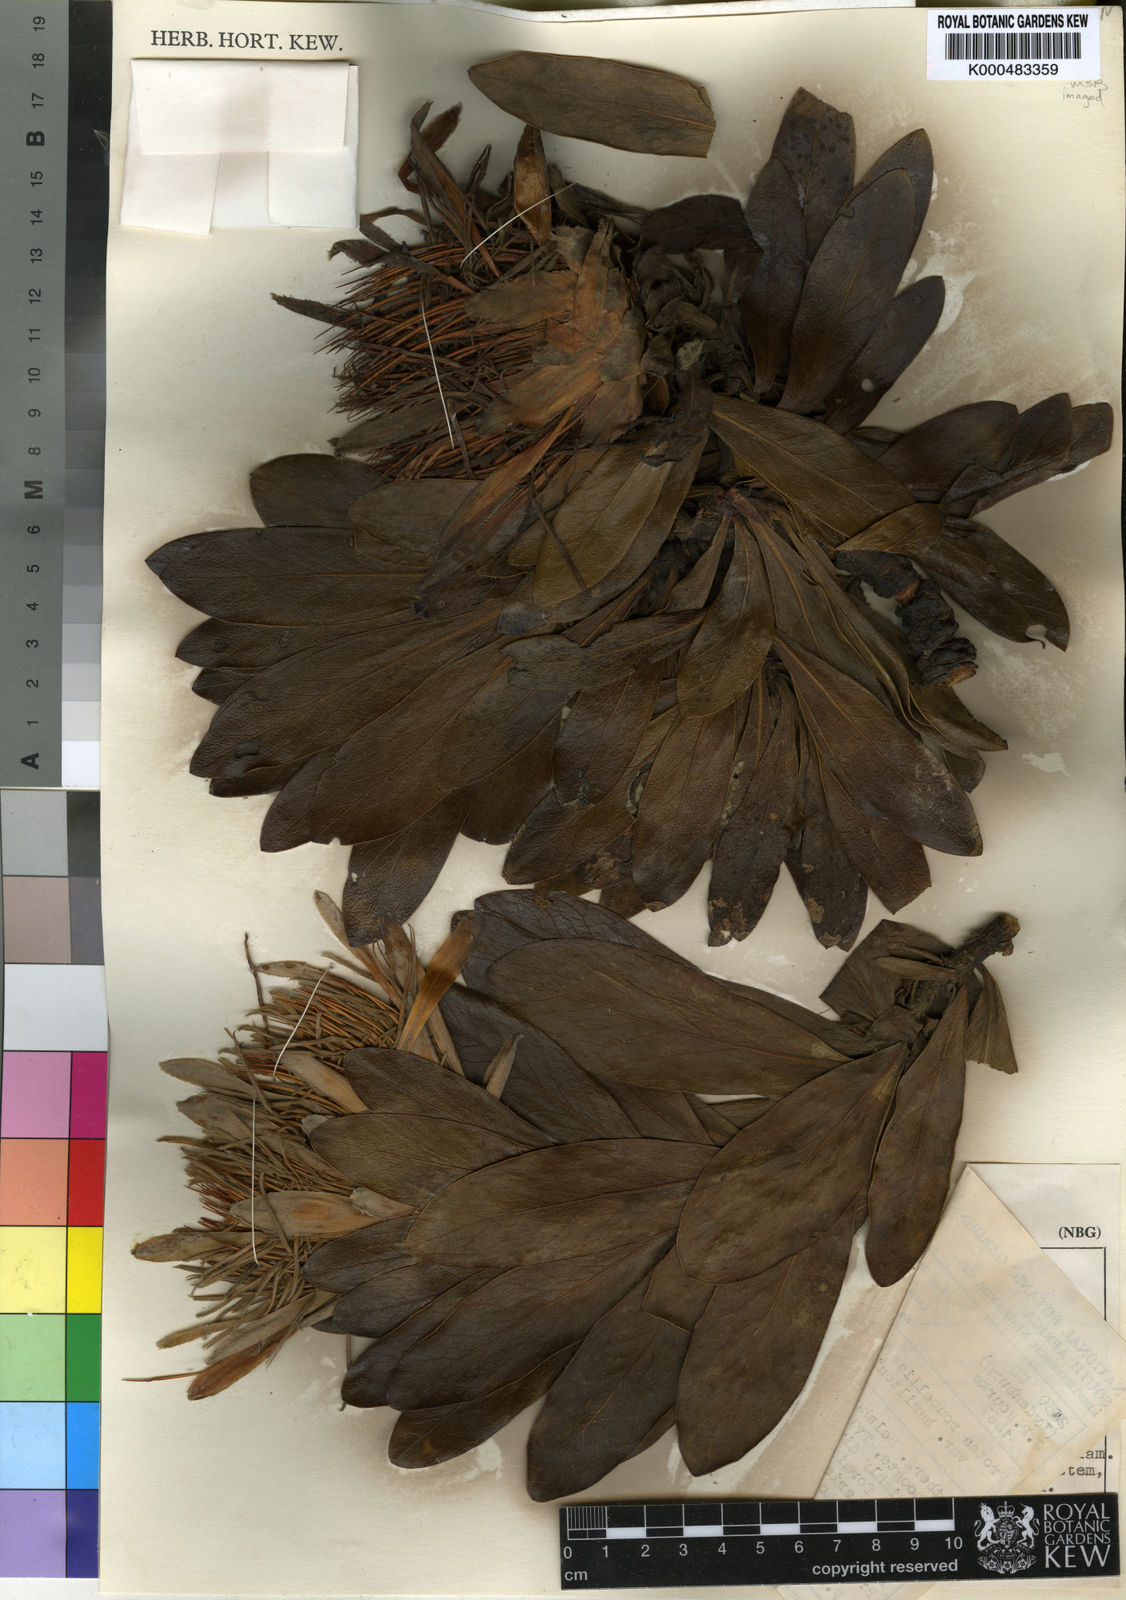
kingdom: Plantae
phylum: Tracheophyta
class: Magnoliopsida
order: Proteales
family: Proteaceae
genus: Protea
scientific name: Protea roupelliae
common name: Silver sugarbush
